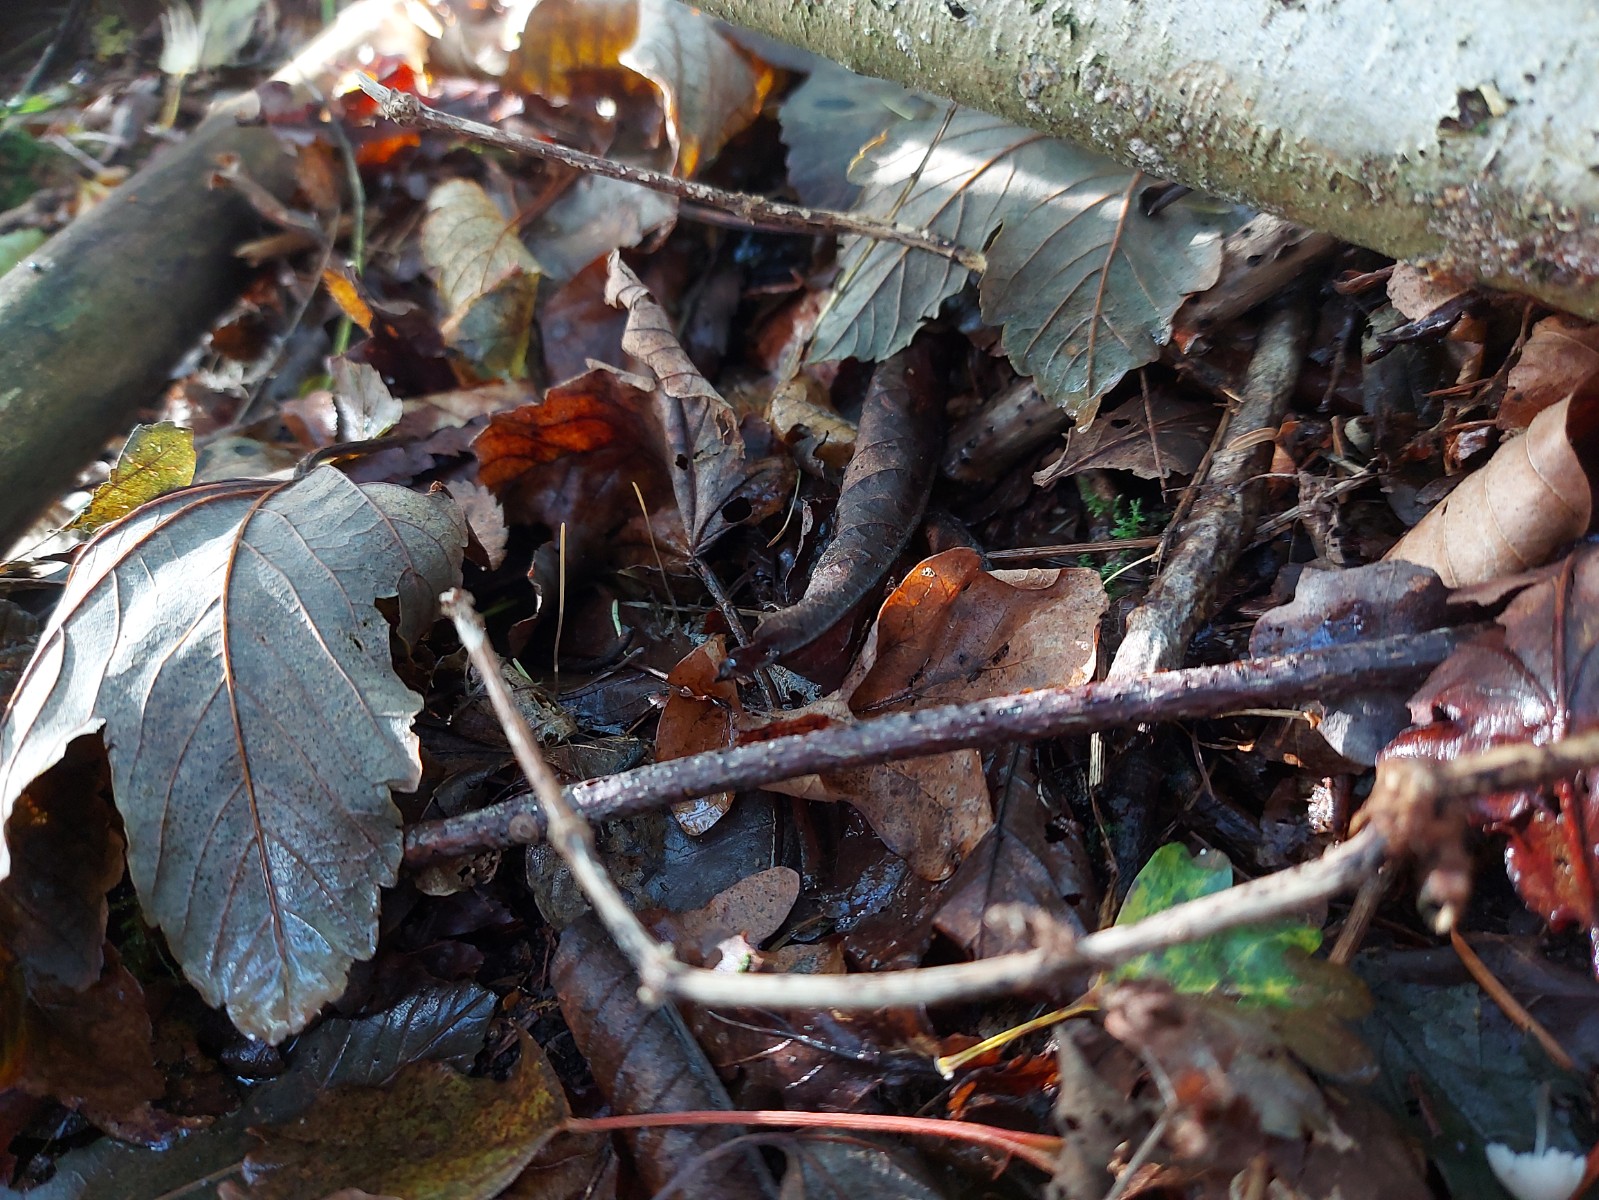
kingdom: Fungi
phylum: Basidiomycota
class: Agaricomycetes
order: Agaricales
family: Typhulaceae
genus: Typhula
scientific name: Typhula juncea
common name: trådagtig rørkølle
